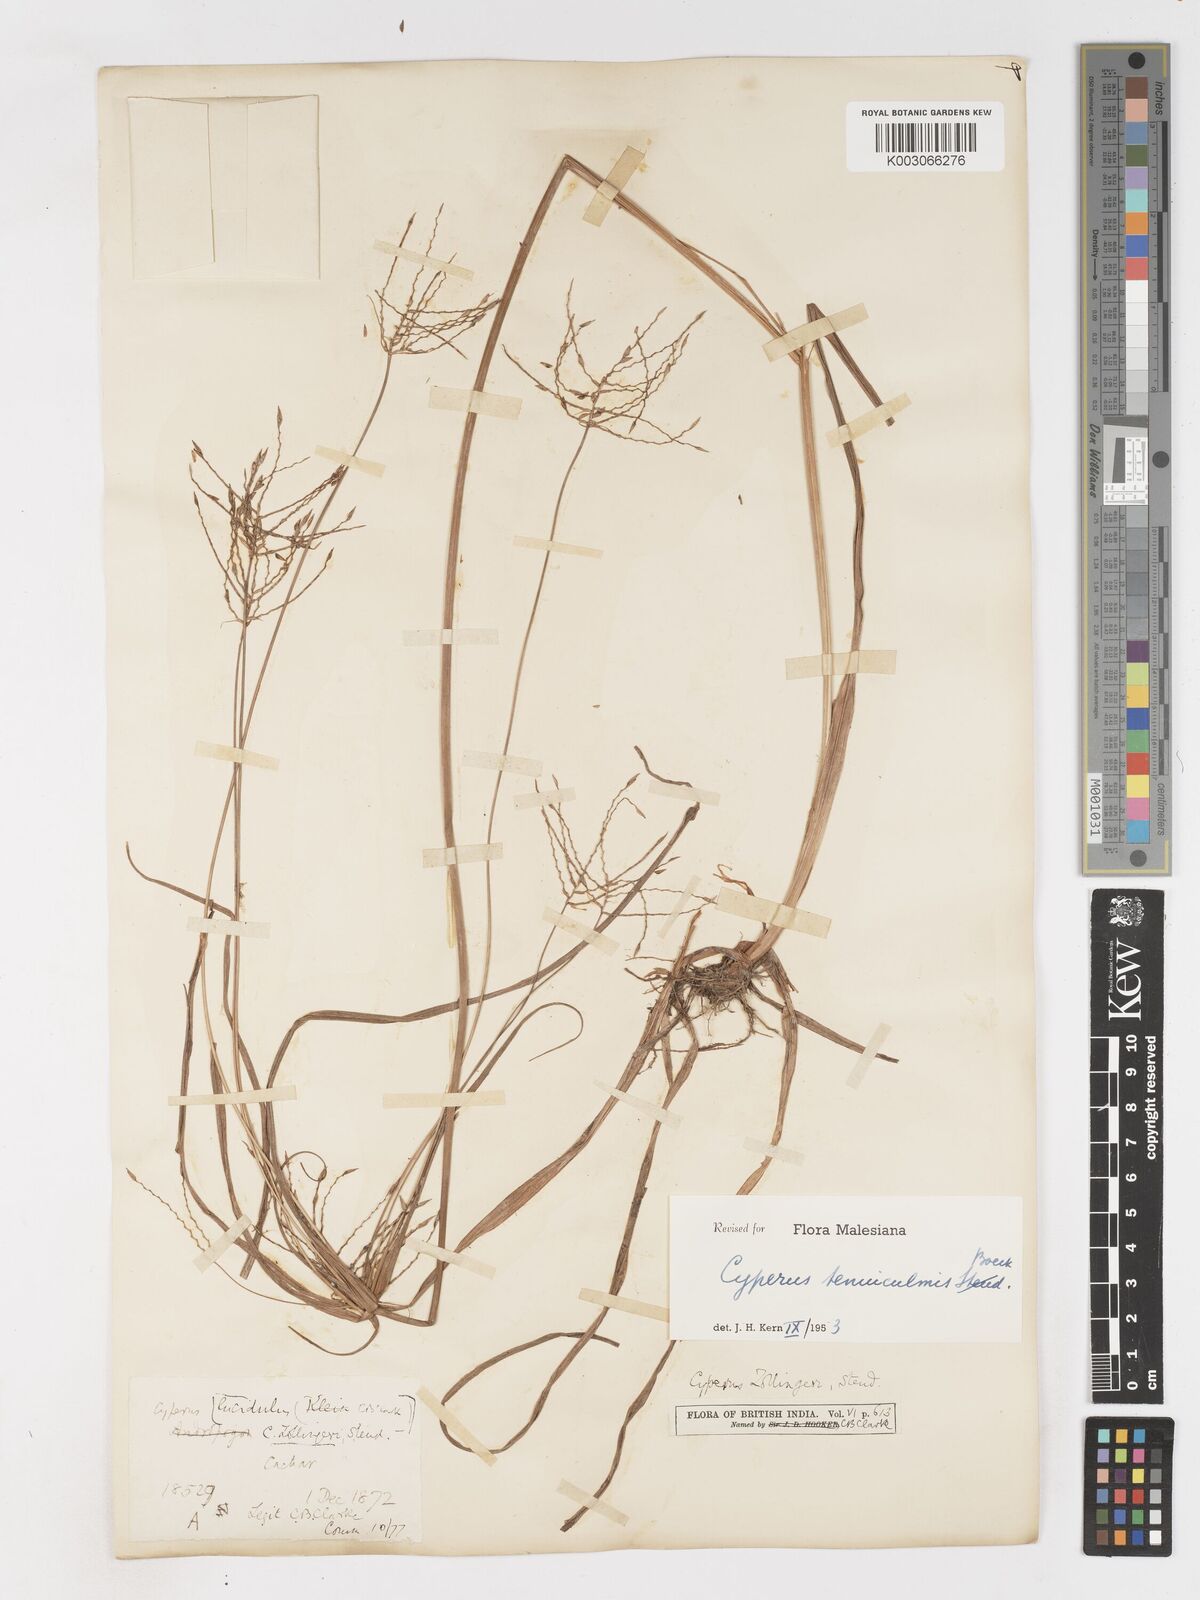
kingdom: Plantae
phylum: Tracheophyta
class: Liliopsida
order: Poales
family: Cyperaceae
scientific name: Cyperaceae
